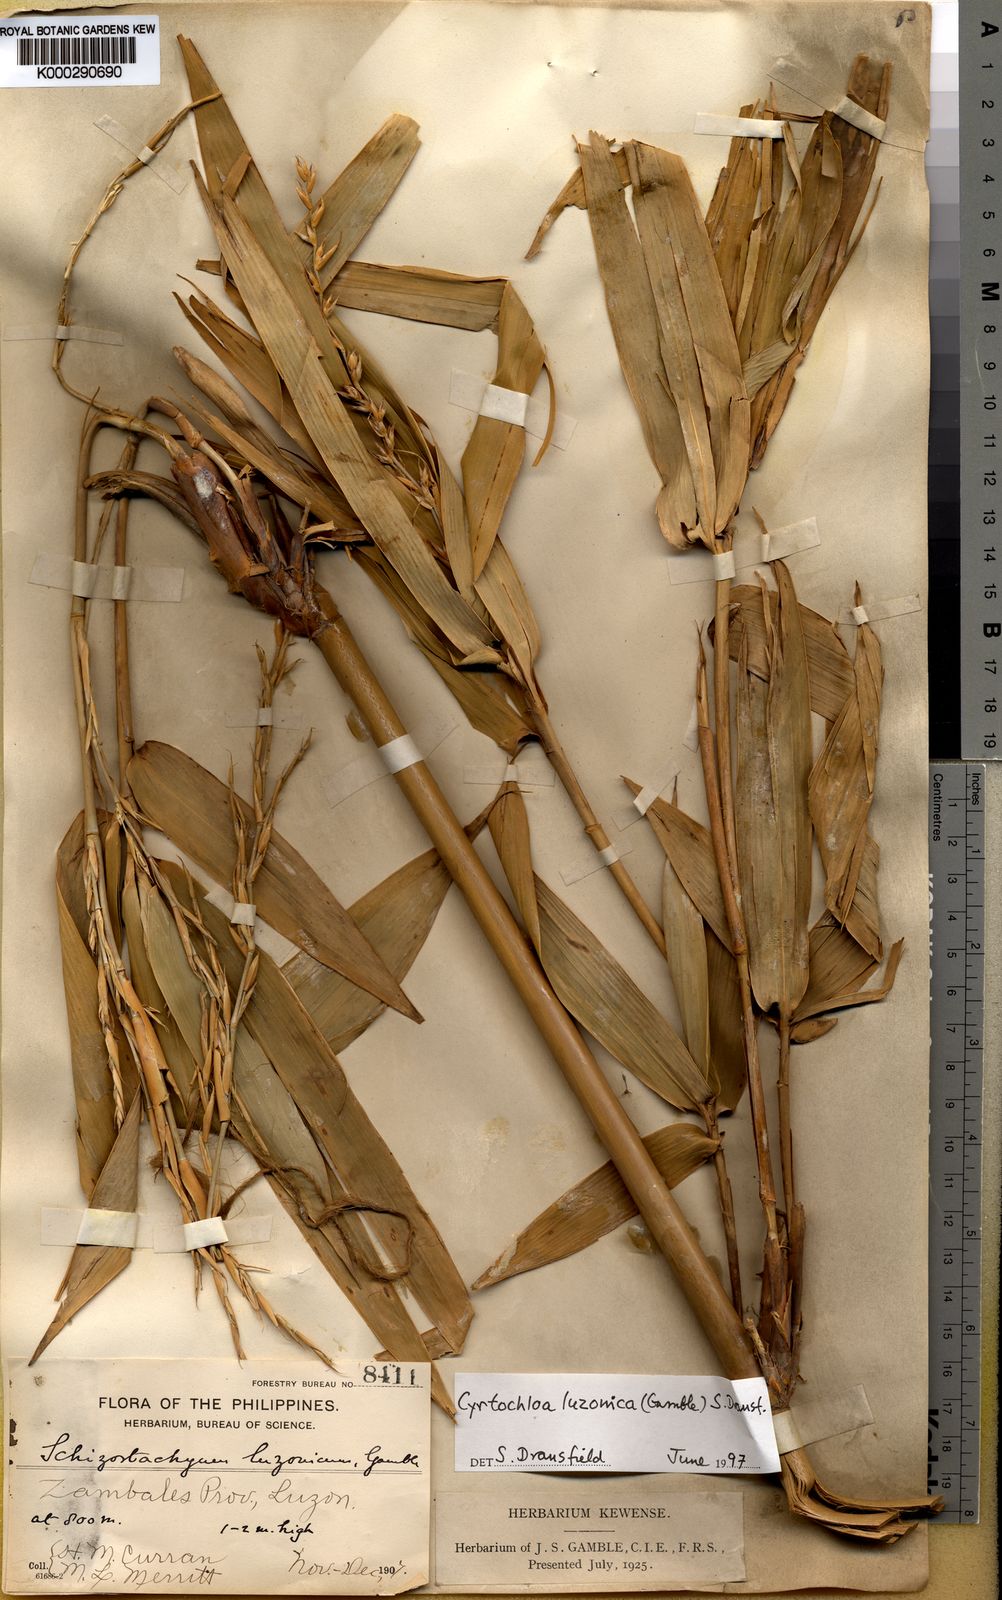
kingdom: Plantae
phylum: Tracheophyta
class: Liliopsida
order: Poales
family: Poaceae
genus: Cyrtochloa
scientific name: Cyrtochloa luzonica
